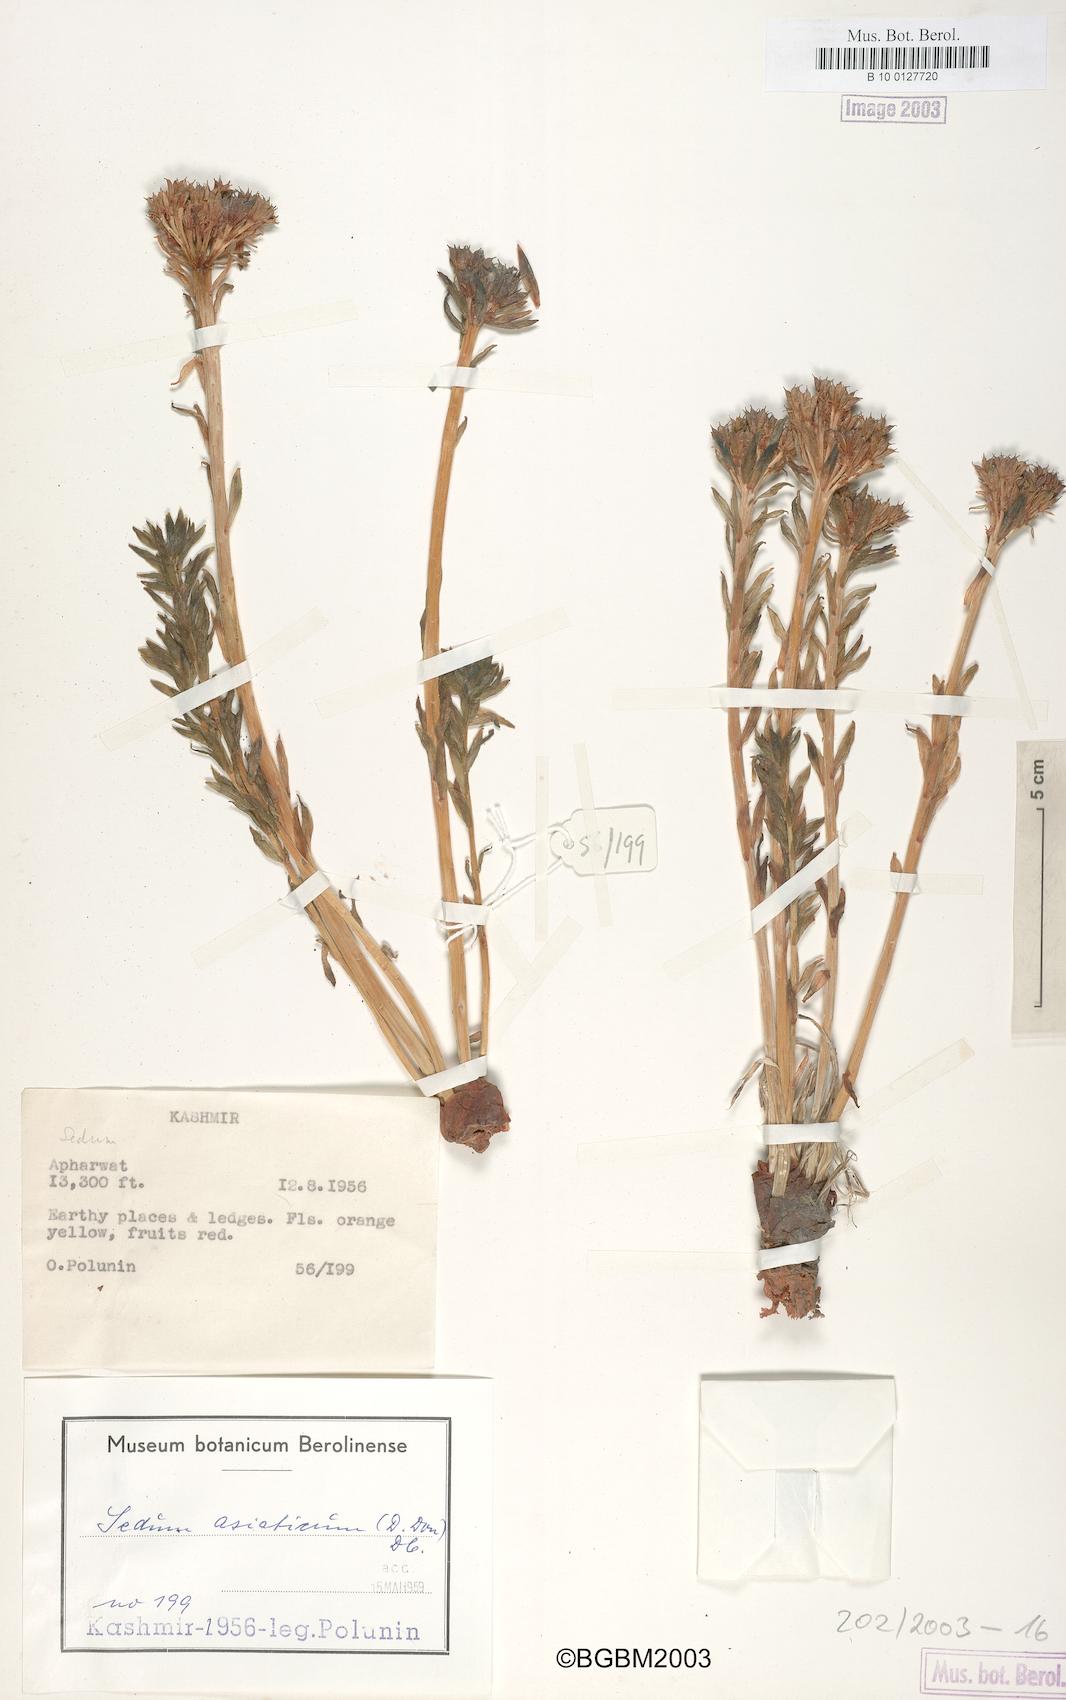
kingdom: Plantae
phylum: Tracheophyta
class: Magnoliopsida
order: Saxifragales
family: Crassulaceae
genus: Rhodiola
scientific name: Rhodiola
